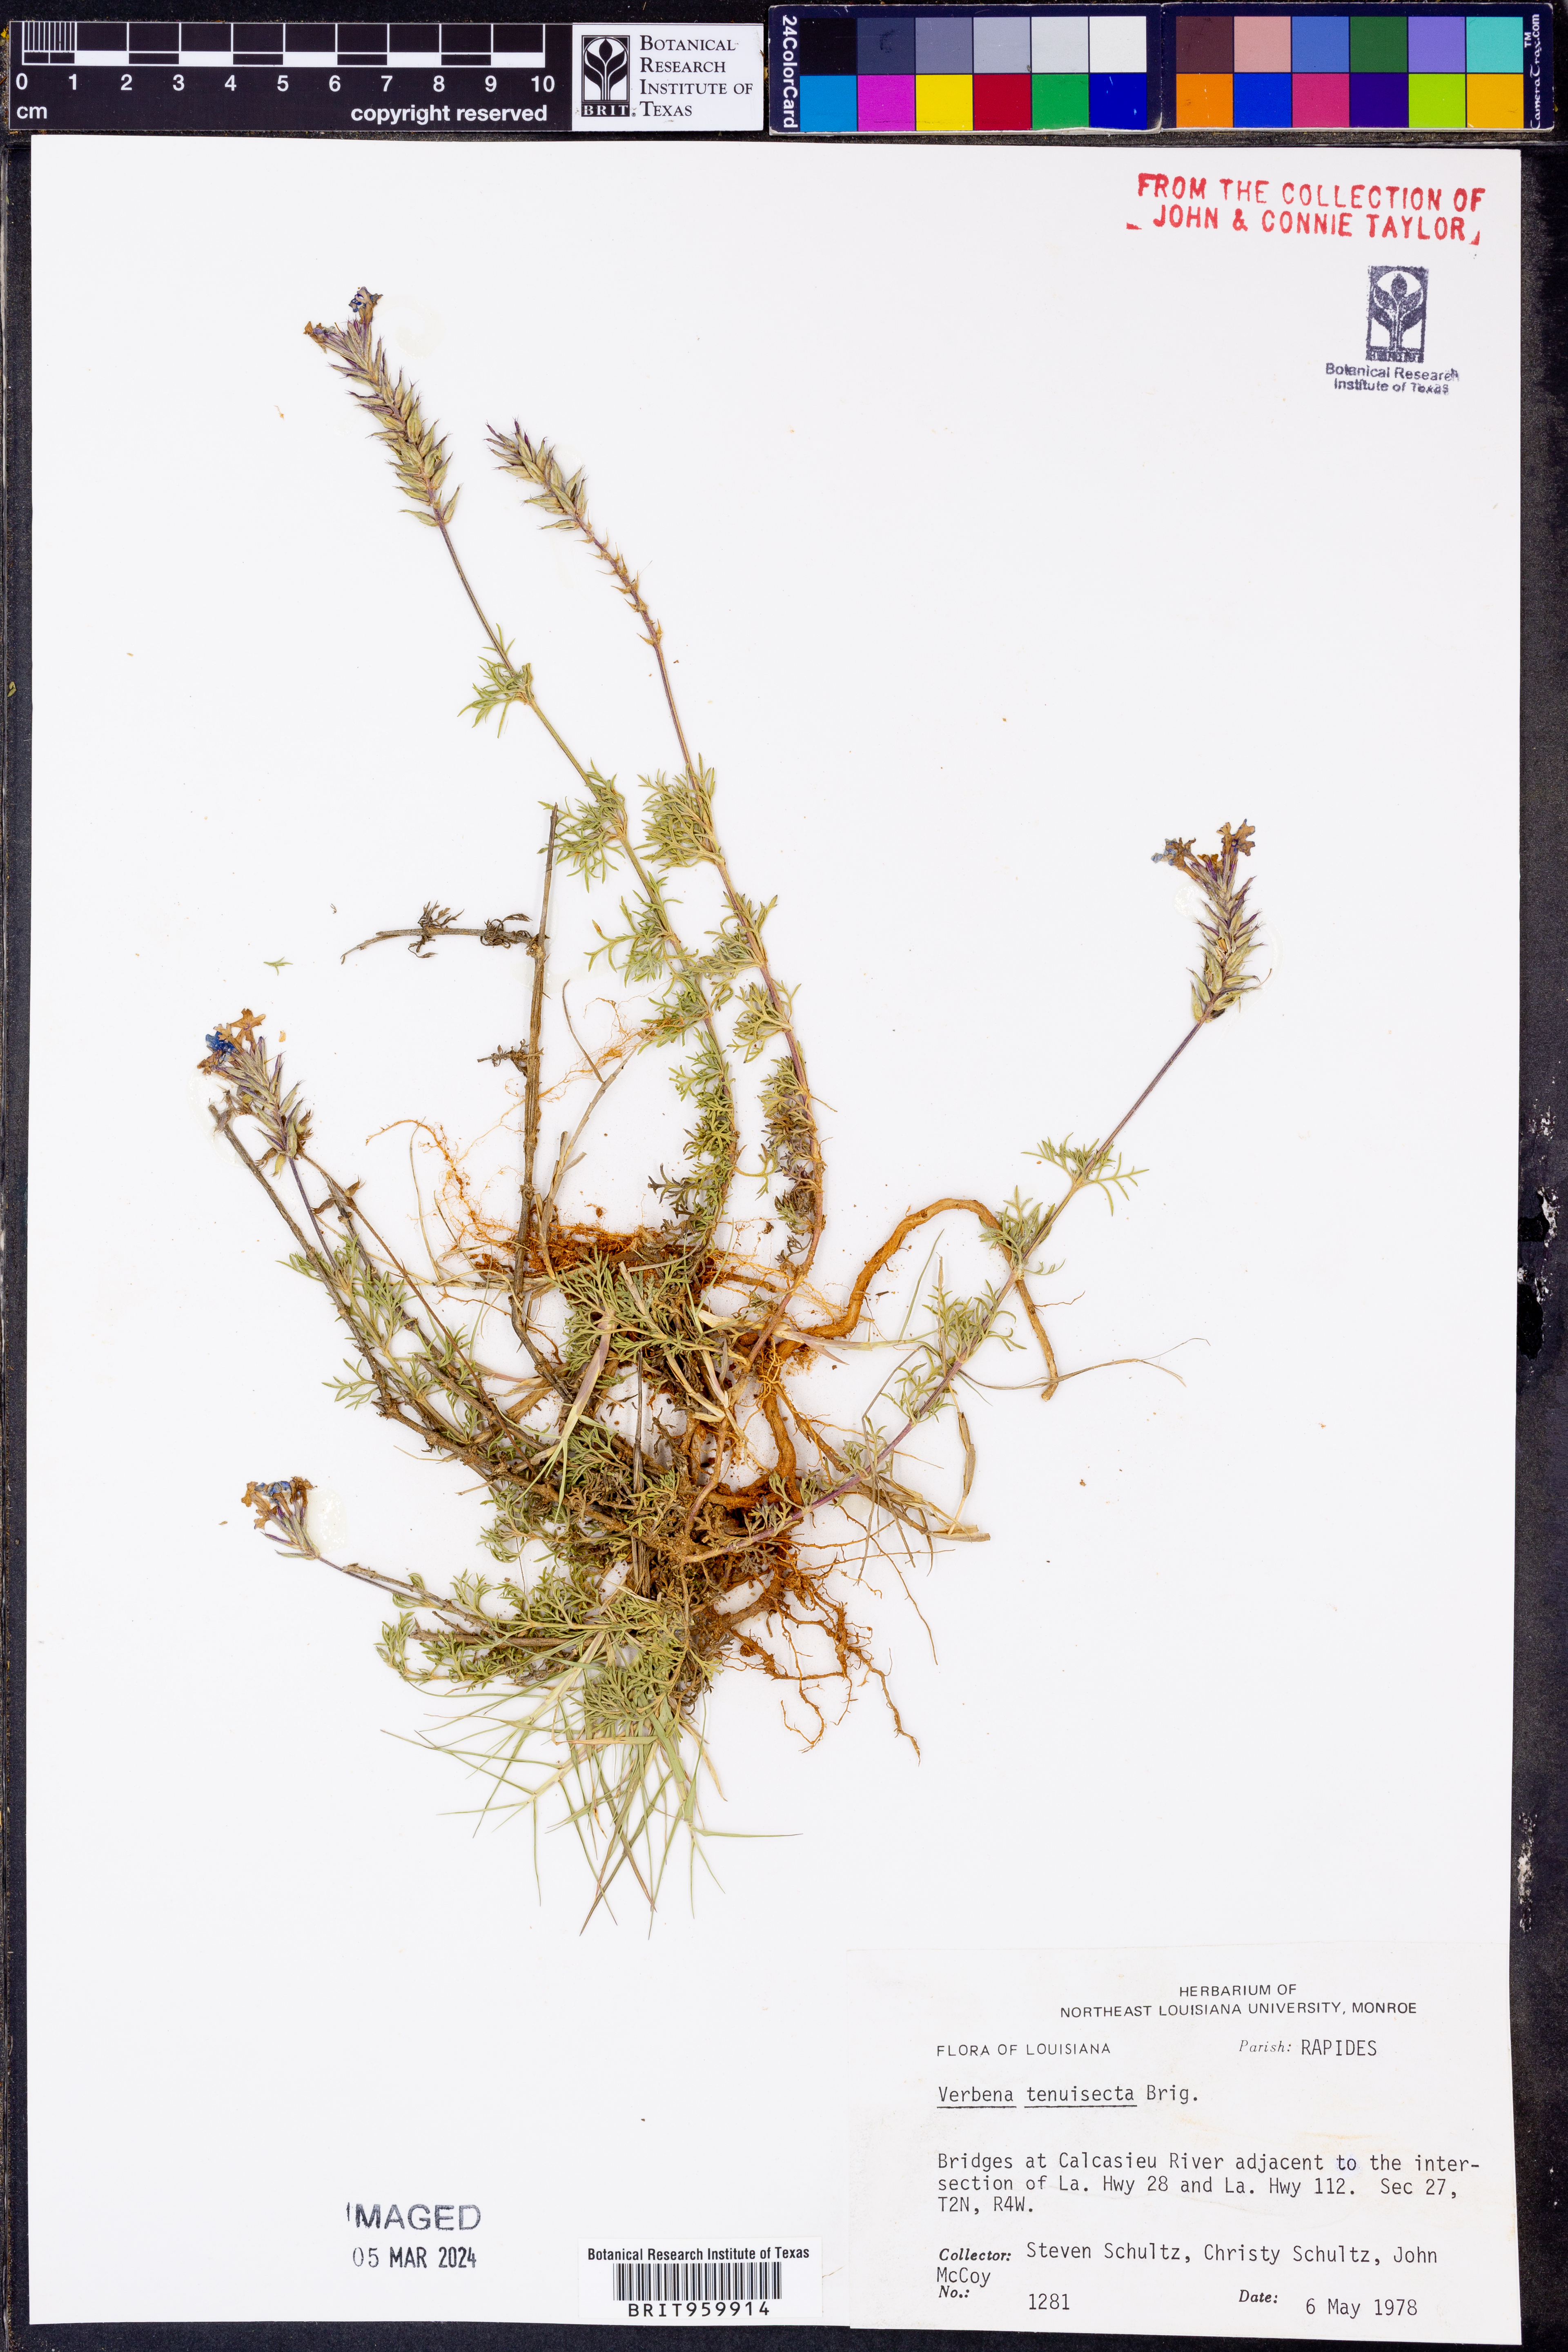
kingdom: Plantae
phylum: Tracheophyta
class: Magnoliopsida
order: Lamiales
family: Verbenaceae
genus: Verbena
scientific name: Verbena tenera
